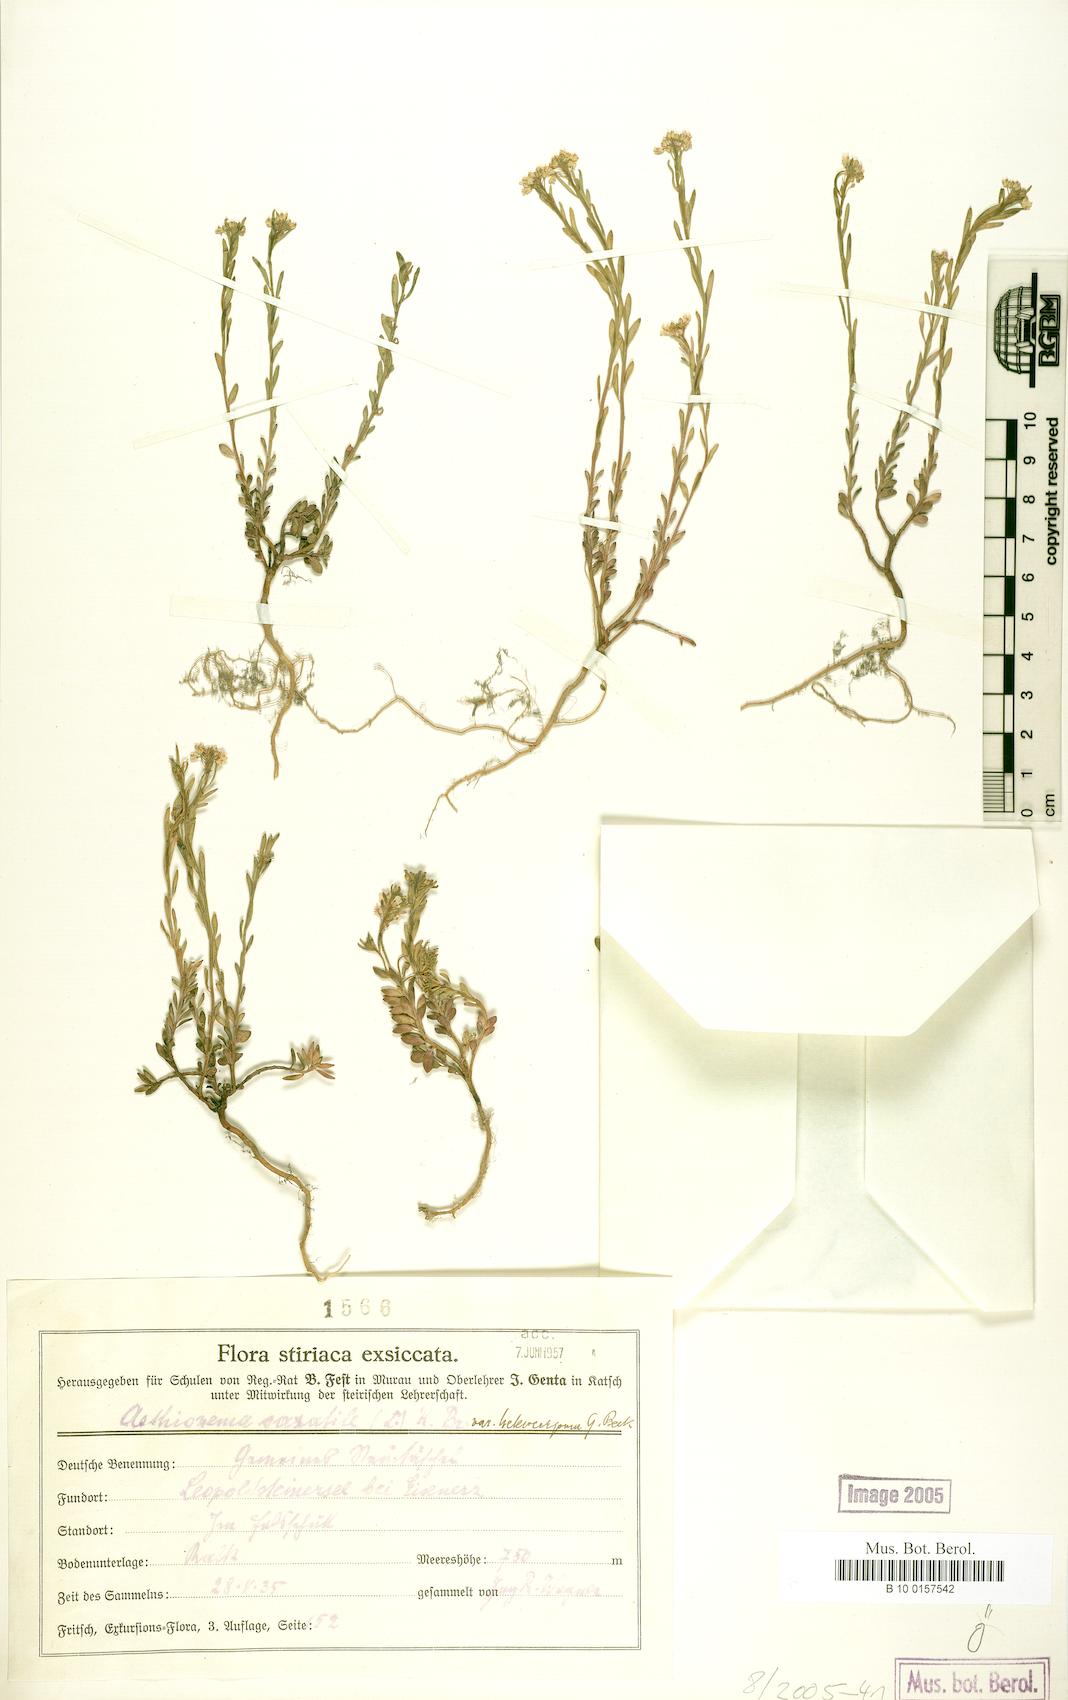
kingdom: Plantae
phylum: Tracheophyta
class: Magnoliopsida
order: Brassicales
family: Brassicaceae
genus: Aethionema
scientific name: Aethionema saxatile
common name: Burnt candytuft
